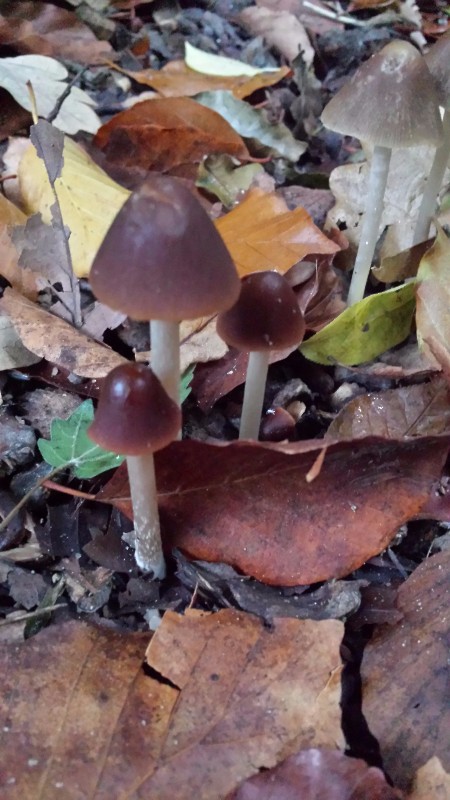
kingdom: Fungi
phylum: Basidiomycota
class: Agaricomycetes
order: Agaricales
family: Psathyrellaceae
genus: Parasola
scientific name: Parasola conopilea
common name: kegle-hjulhat
